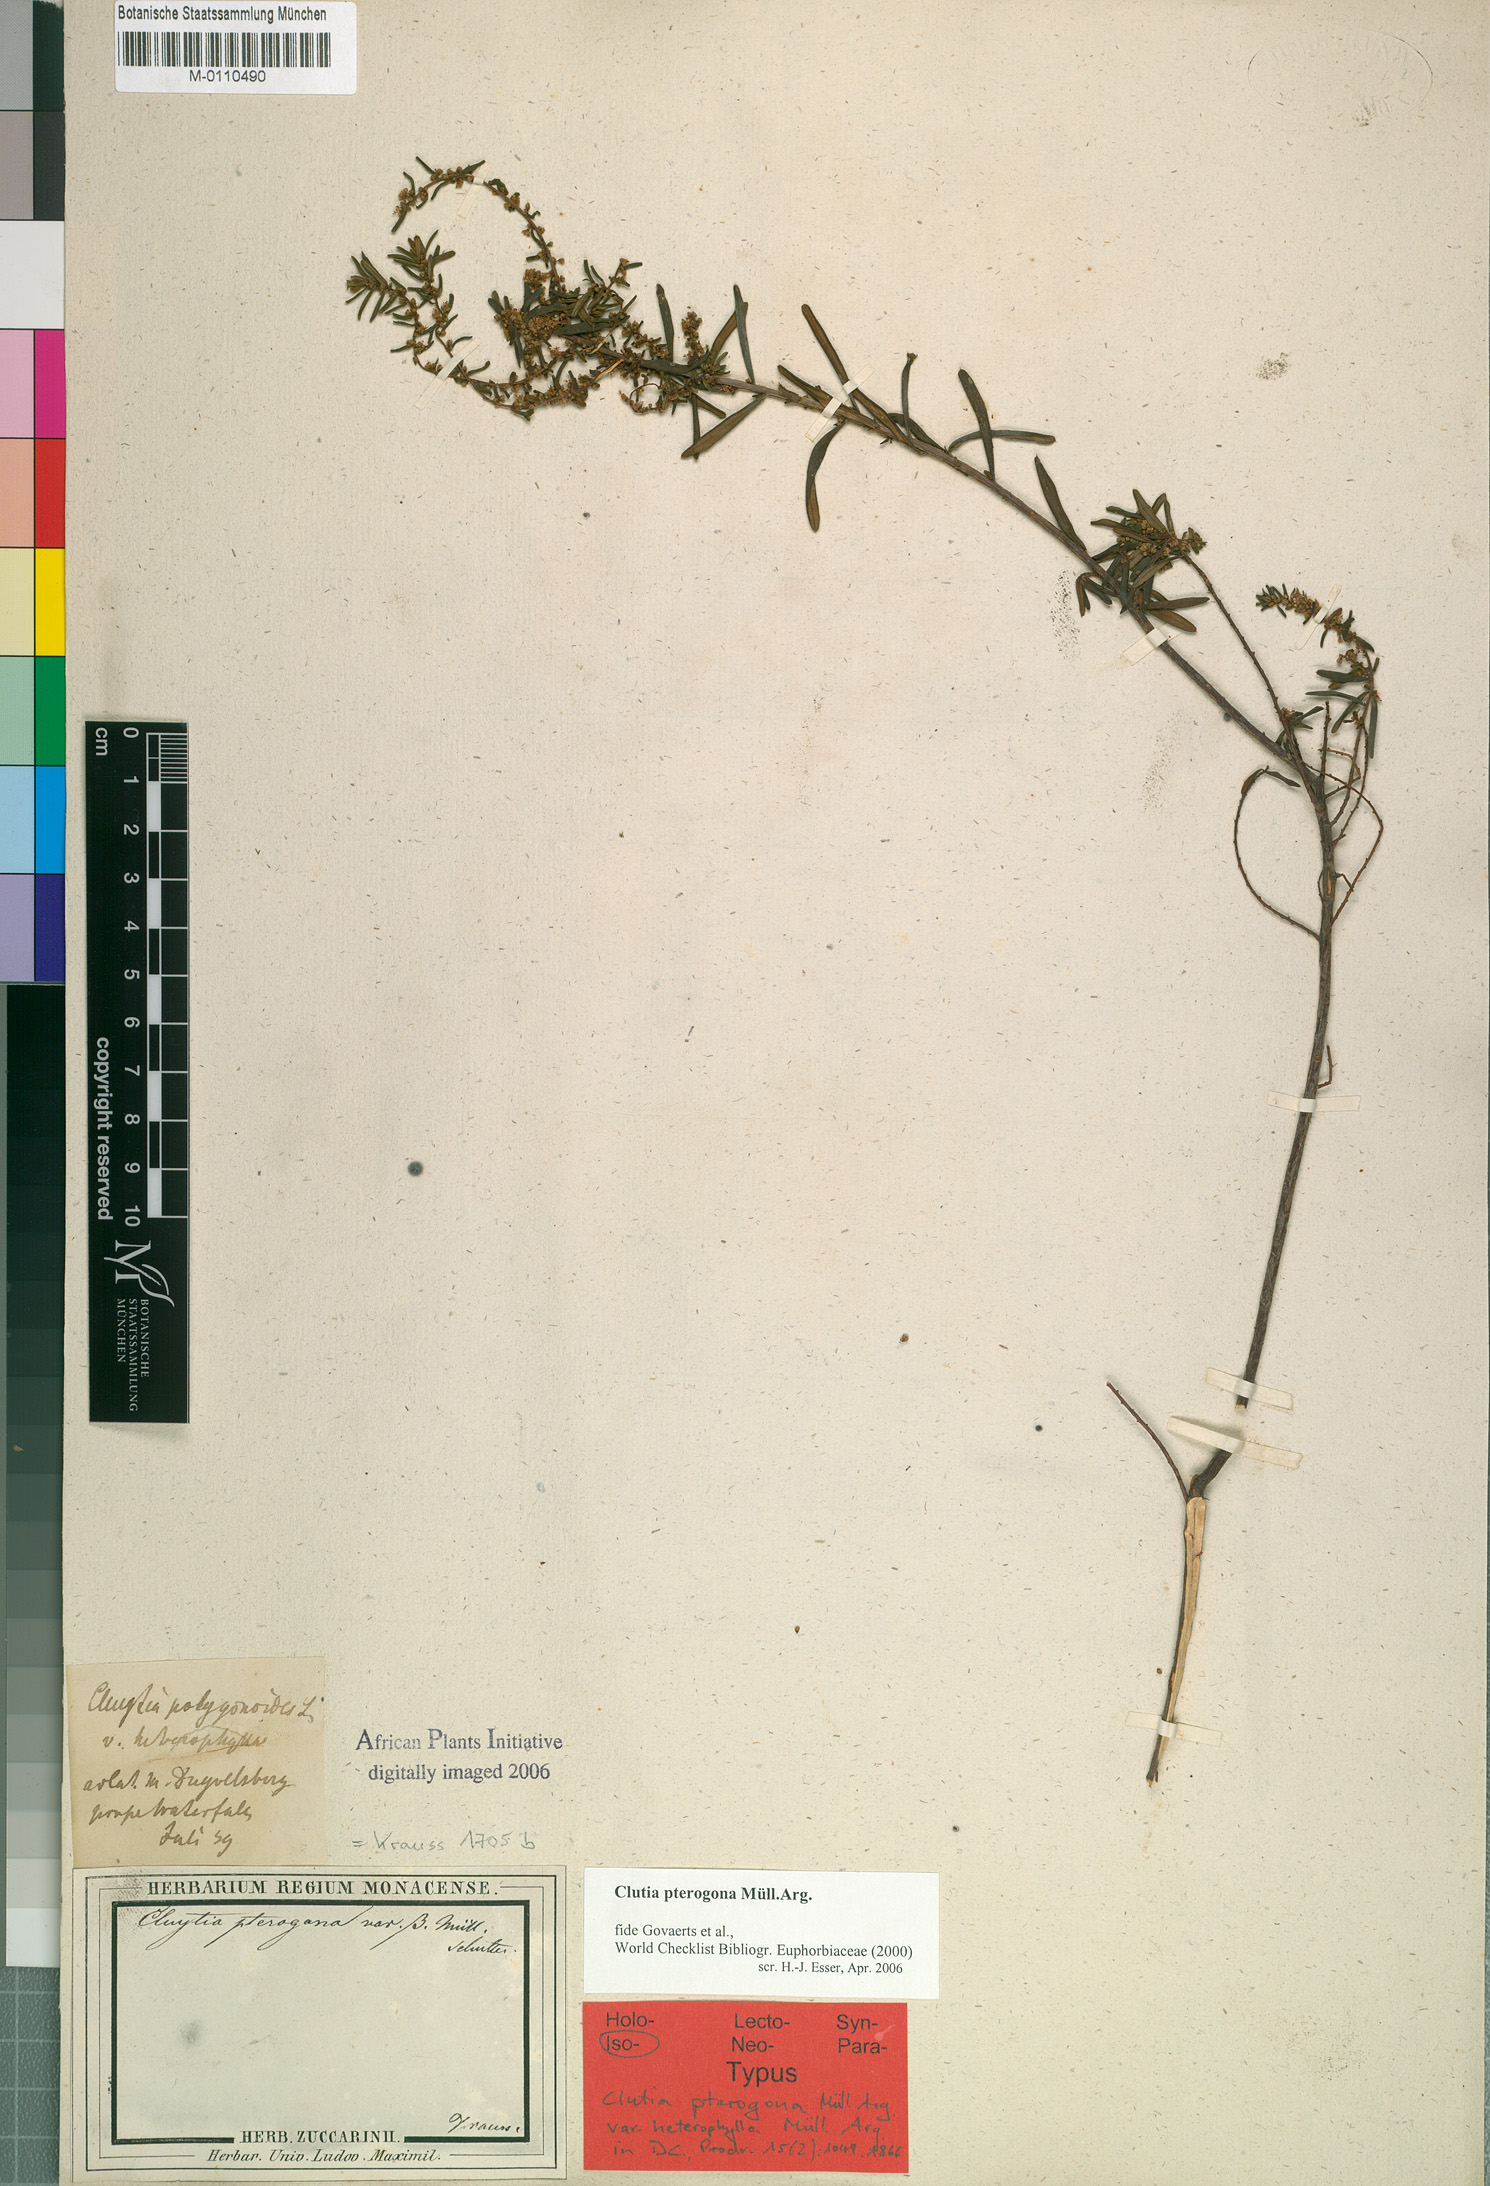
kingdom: Plantae
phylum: Tracheophyta
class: Magnoliopsida
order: Malpighiales
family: Peraceae
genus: Clutia
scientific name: Clutia pterogona
